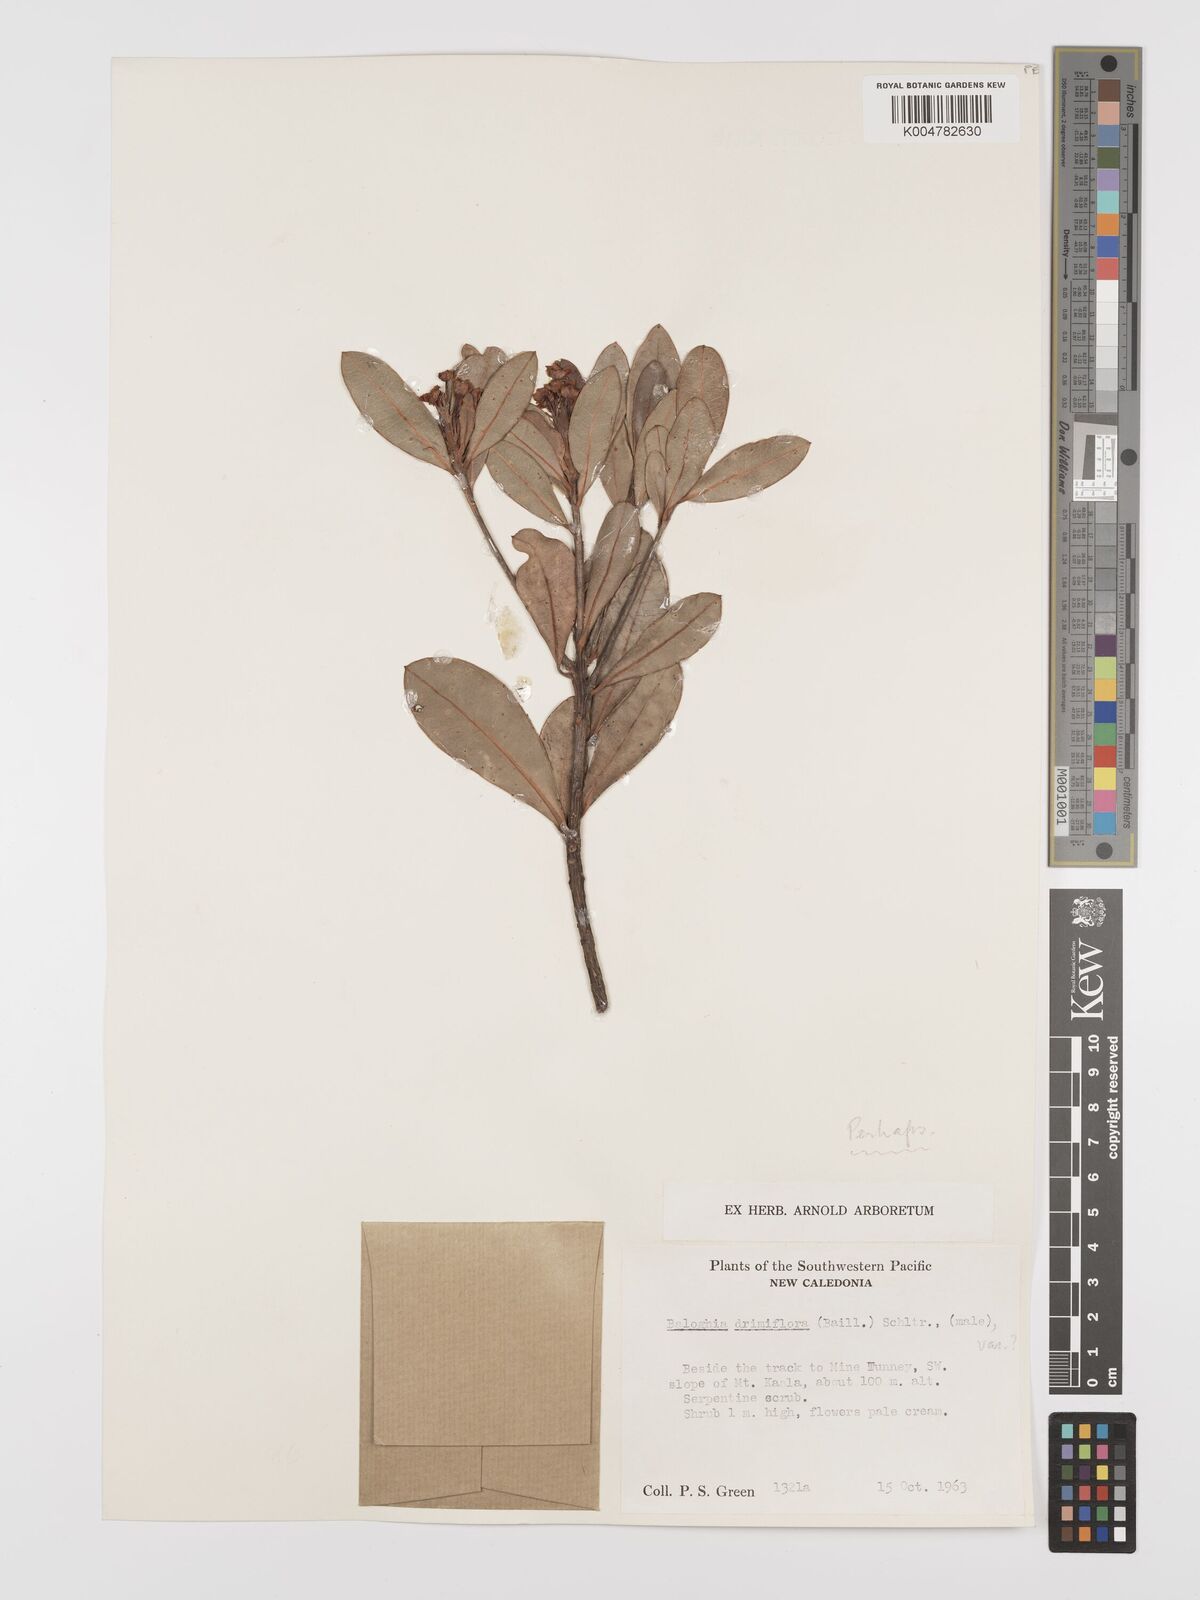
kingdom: Plantae
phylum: Tracheophyta
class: Magnoliopsida
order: Malpighiales
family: Euphorbiaceae
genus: Baloghia
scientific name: Baloghia drimiflora
